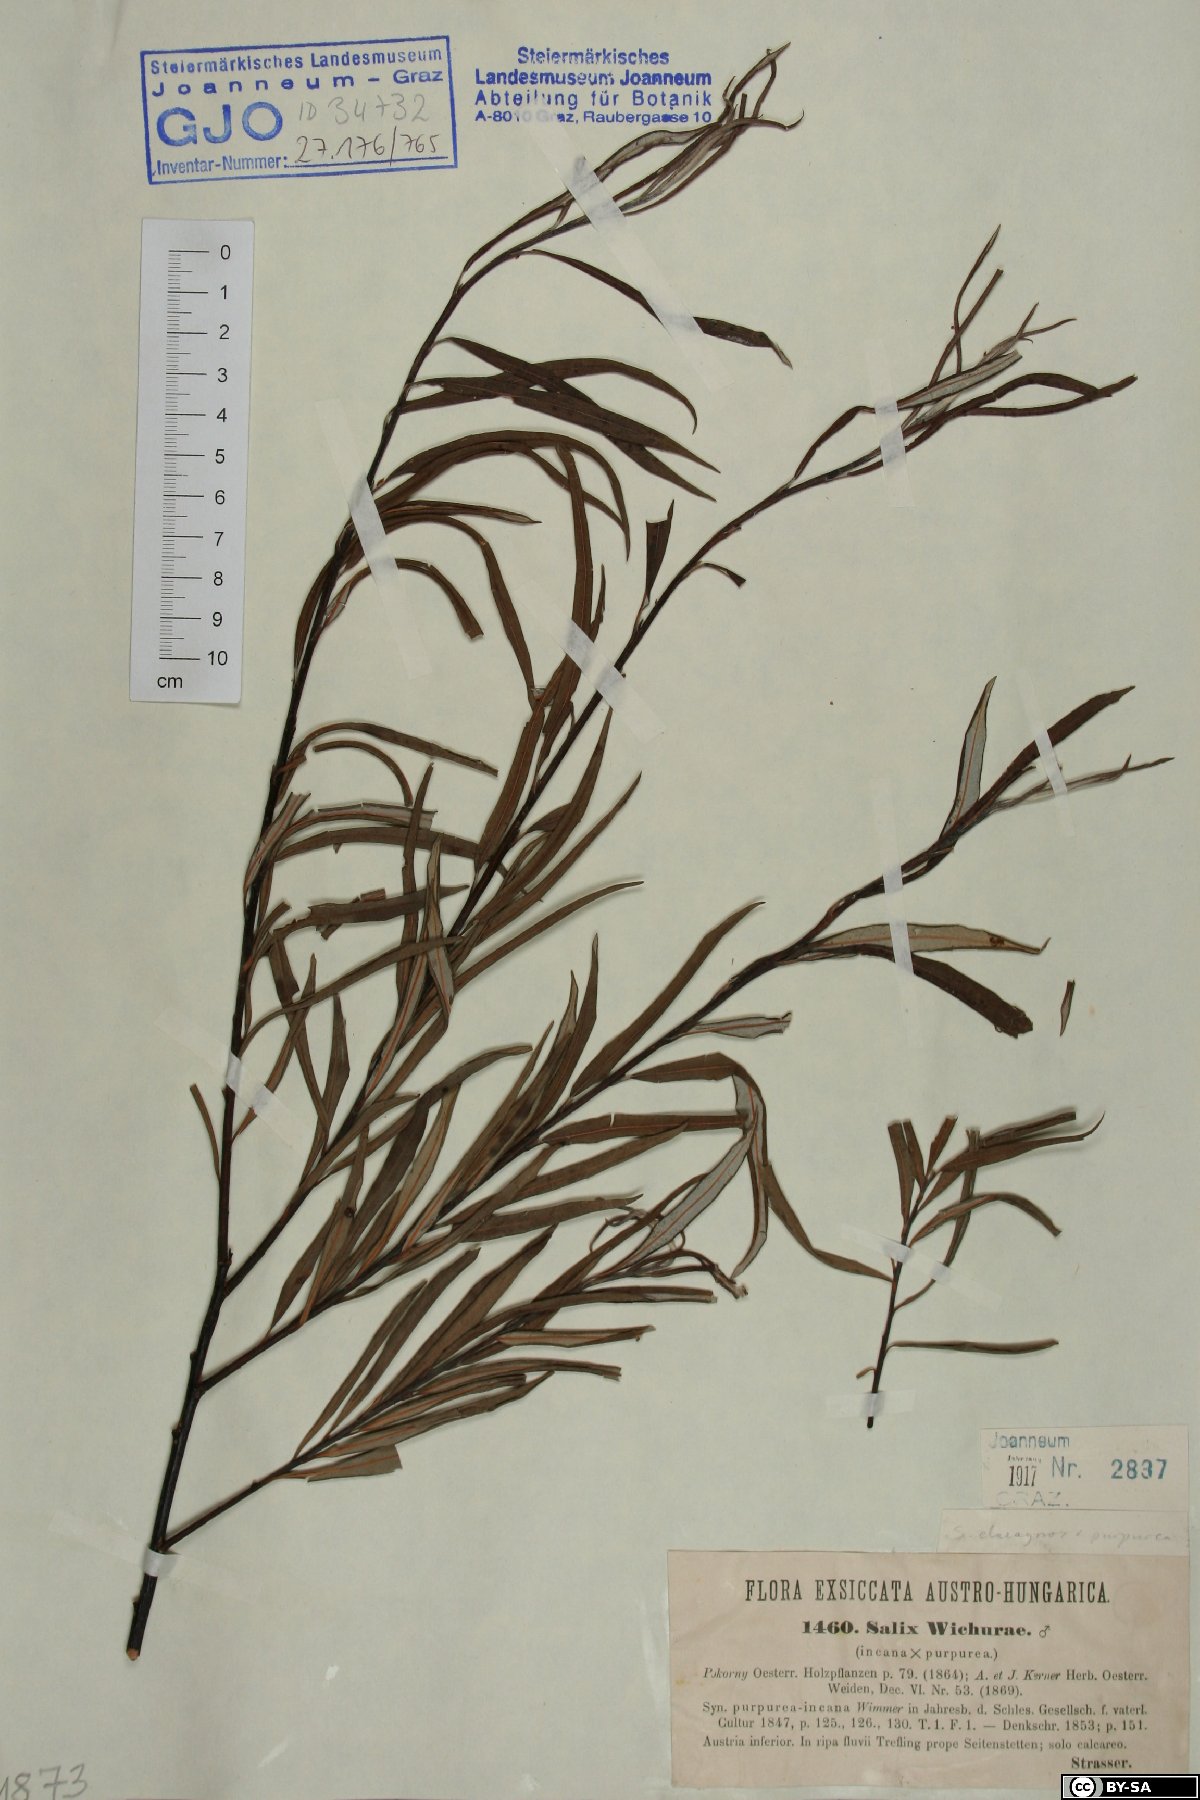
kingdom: Plantae
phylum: Tracheophyta
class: Magnoliopsida
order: Malpighiales
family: Salicaceae
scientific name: Salicaceae
